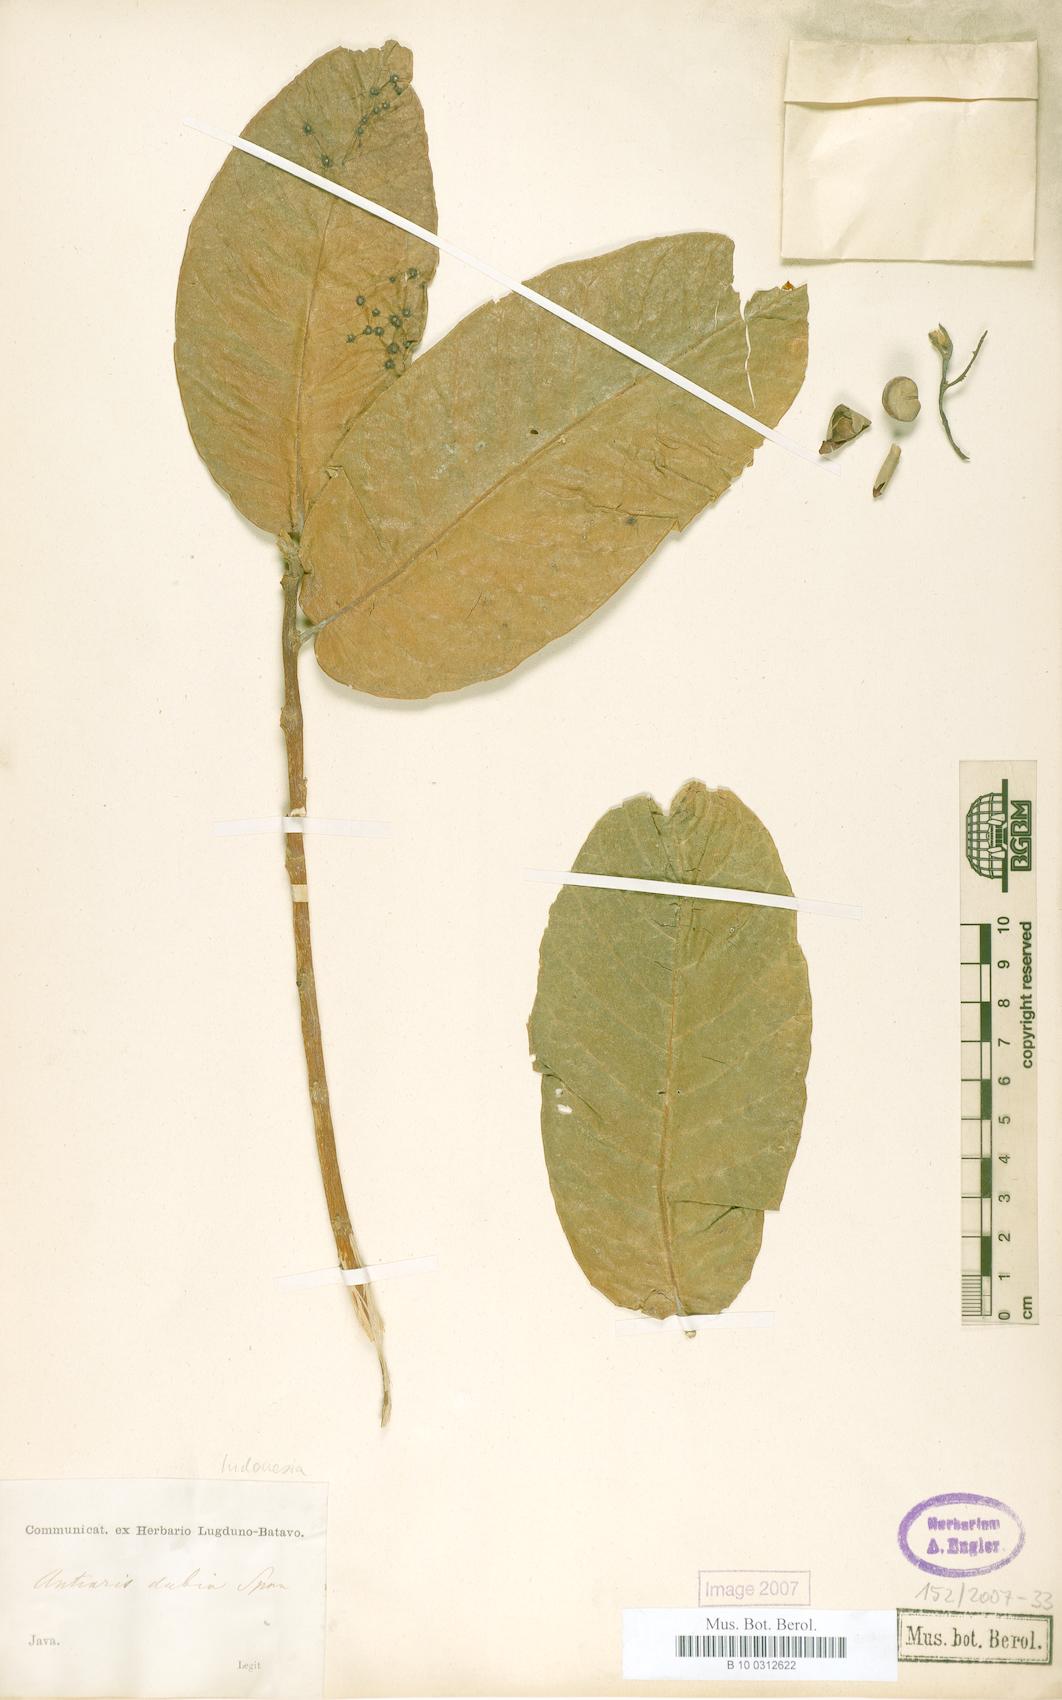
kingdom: Plantae
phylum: Tracheophyta
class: Magnoliopsida
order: Rosales
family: Moraceae
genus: Antiaris
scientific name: Antiaris toxicaria
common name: Sackingtree
